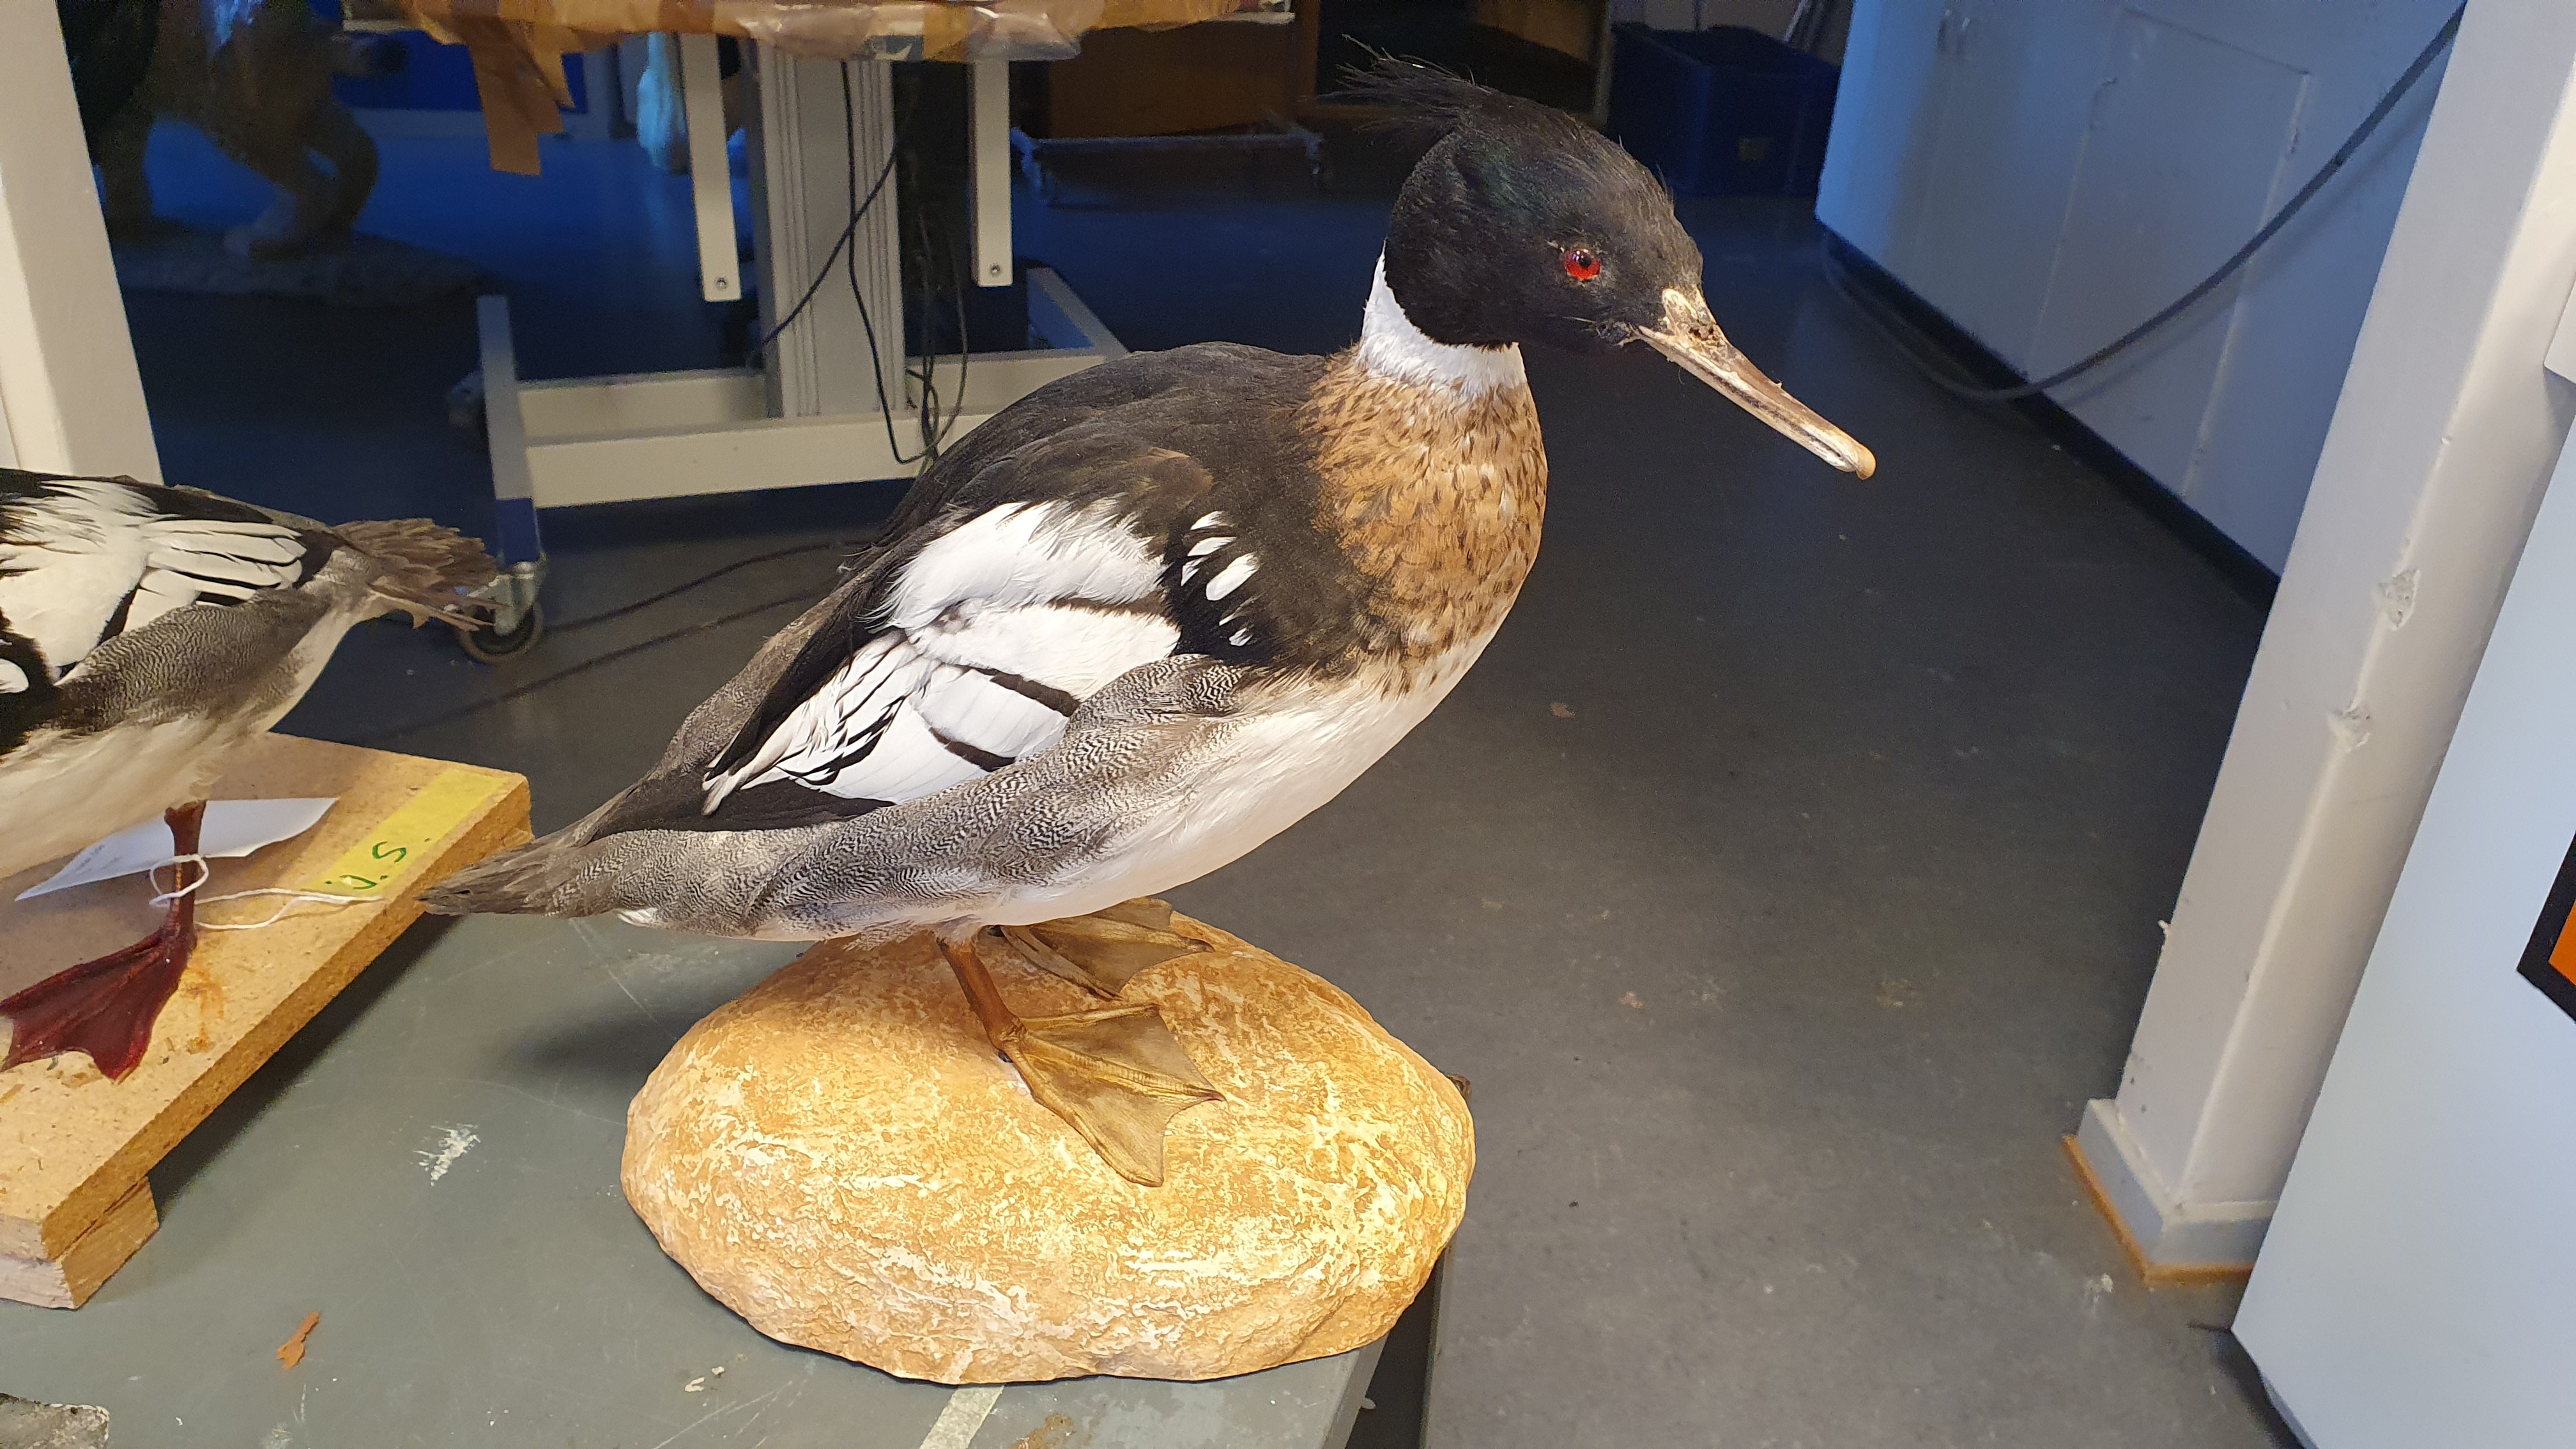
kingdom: Animalia
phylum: Chordata
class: Aves
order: Anseriformes
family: Anatidae
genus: Mergus
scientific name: Mergus serrator
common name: Red-breasted merganser
